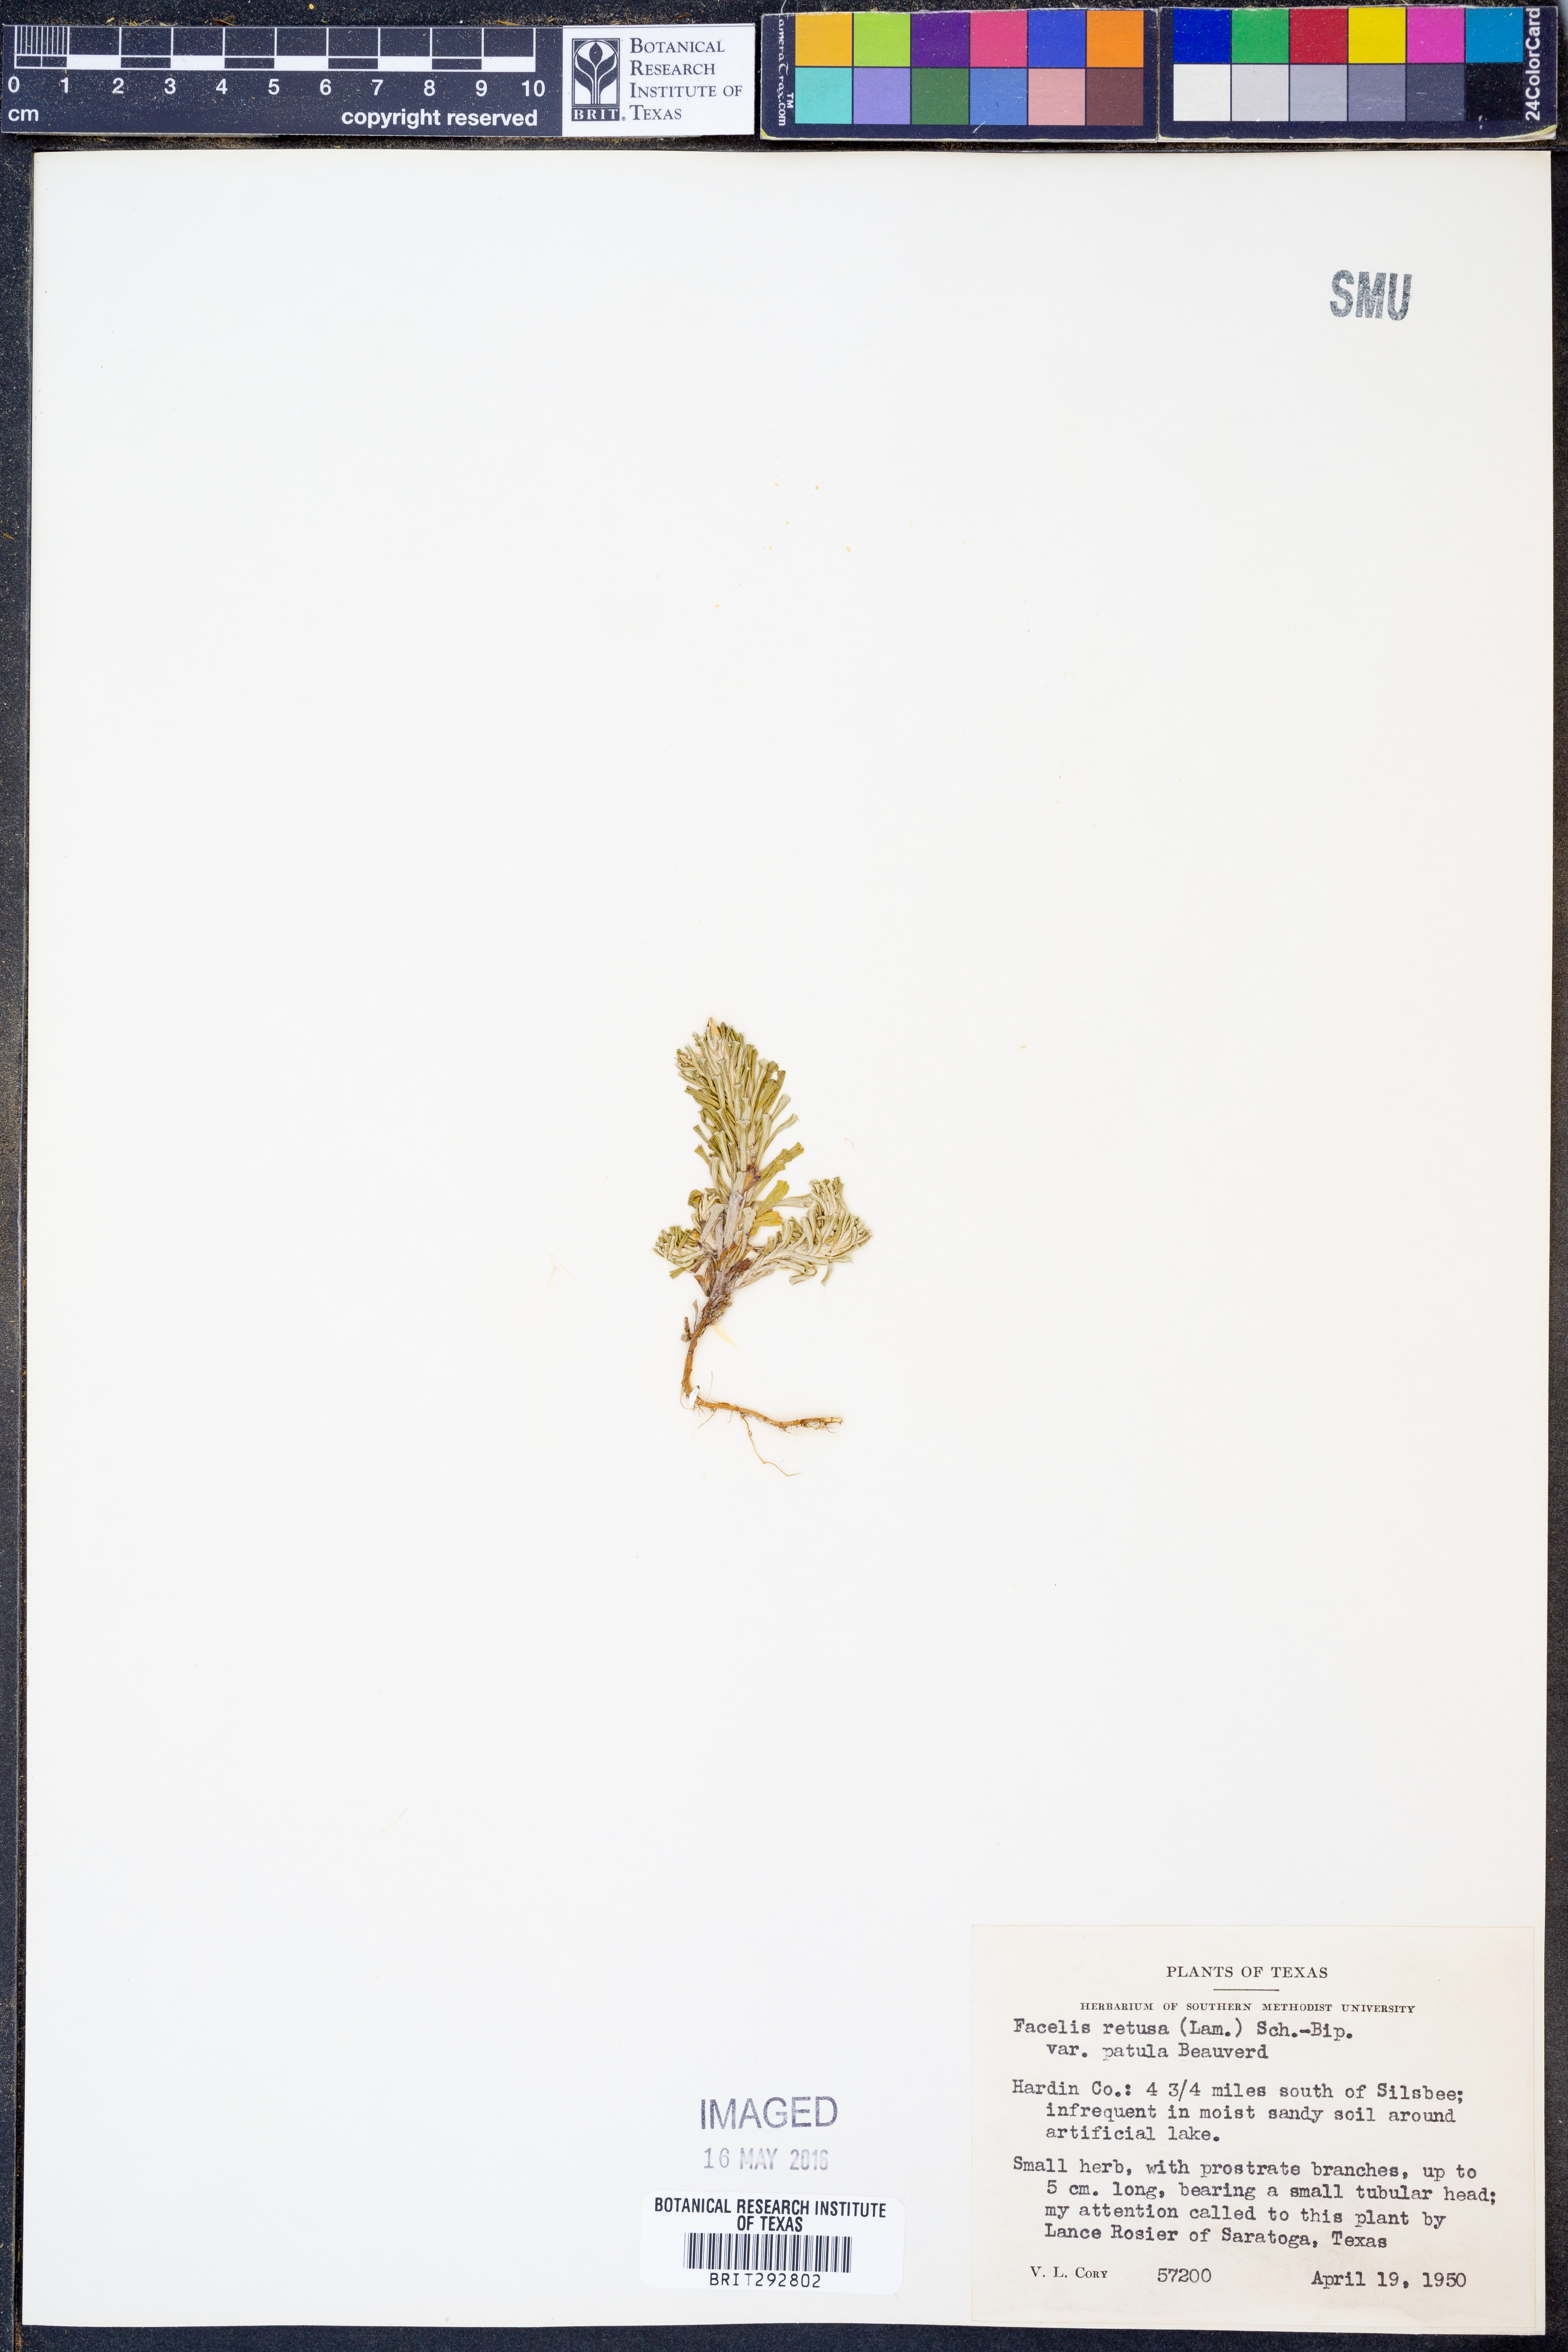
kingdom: Plantae
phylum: Tracheophyta
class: Magnoliopsida
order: Asterales
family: Asteraceae
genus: Facelis
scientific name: Facelis retusa
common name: Annual trampweed
